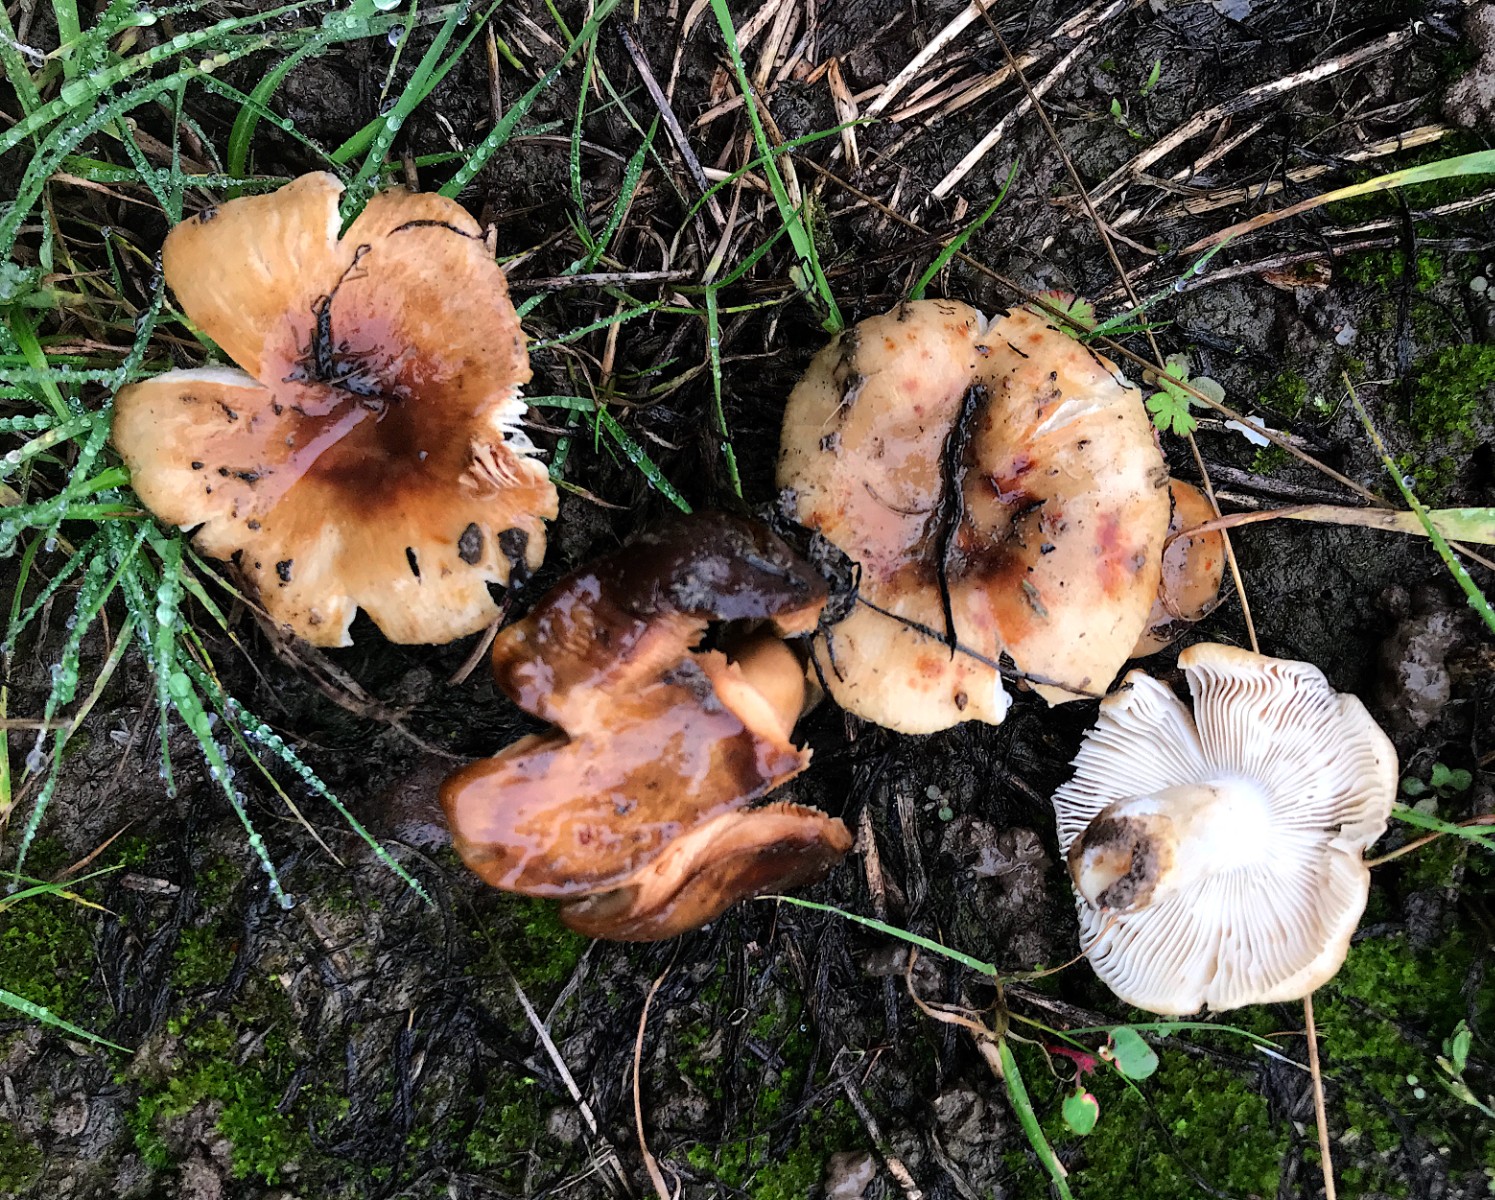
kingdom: Fungi
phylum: Basidiomycota
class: Agaricomycetes
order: Russulales
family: Russulaceae
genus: Russula
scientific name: Russula
